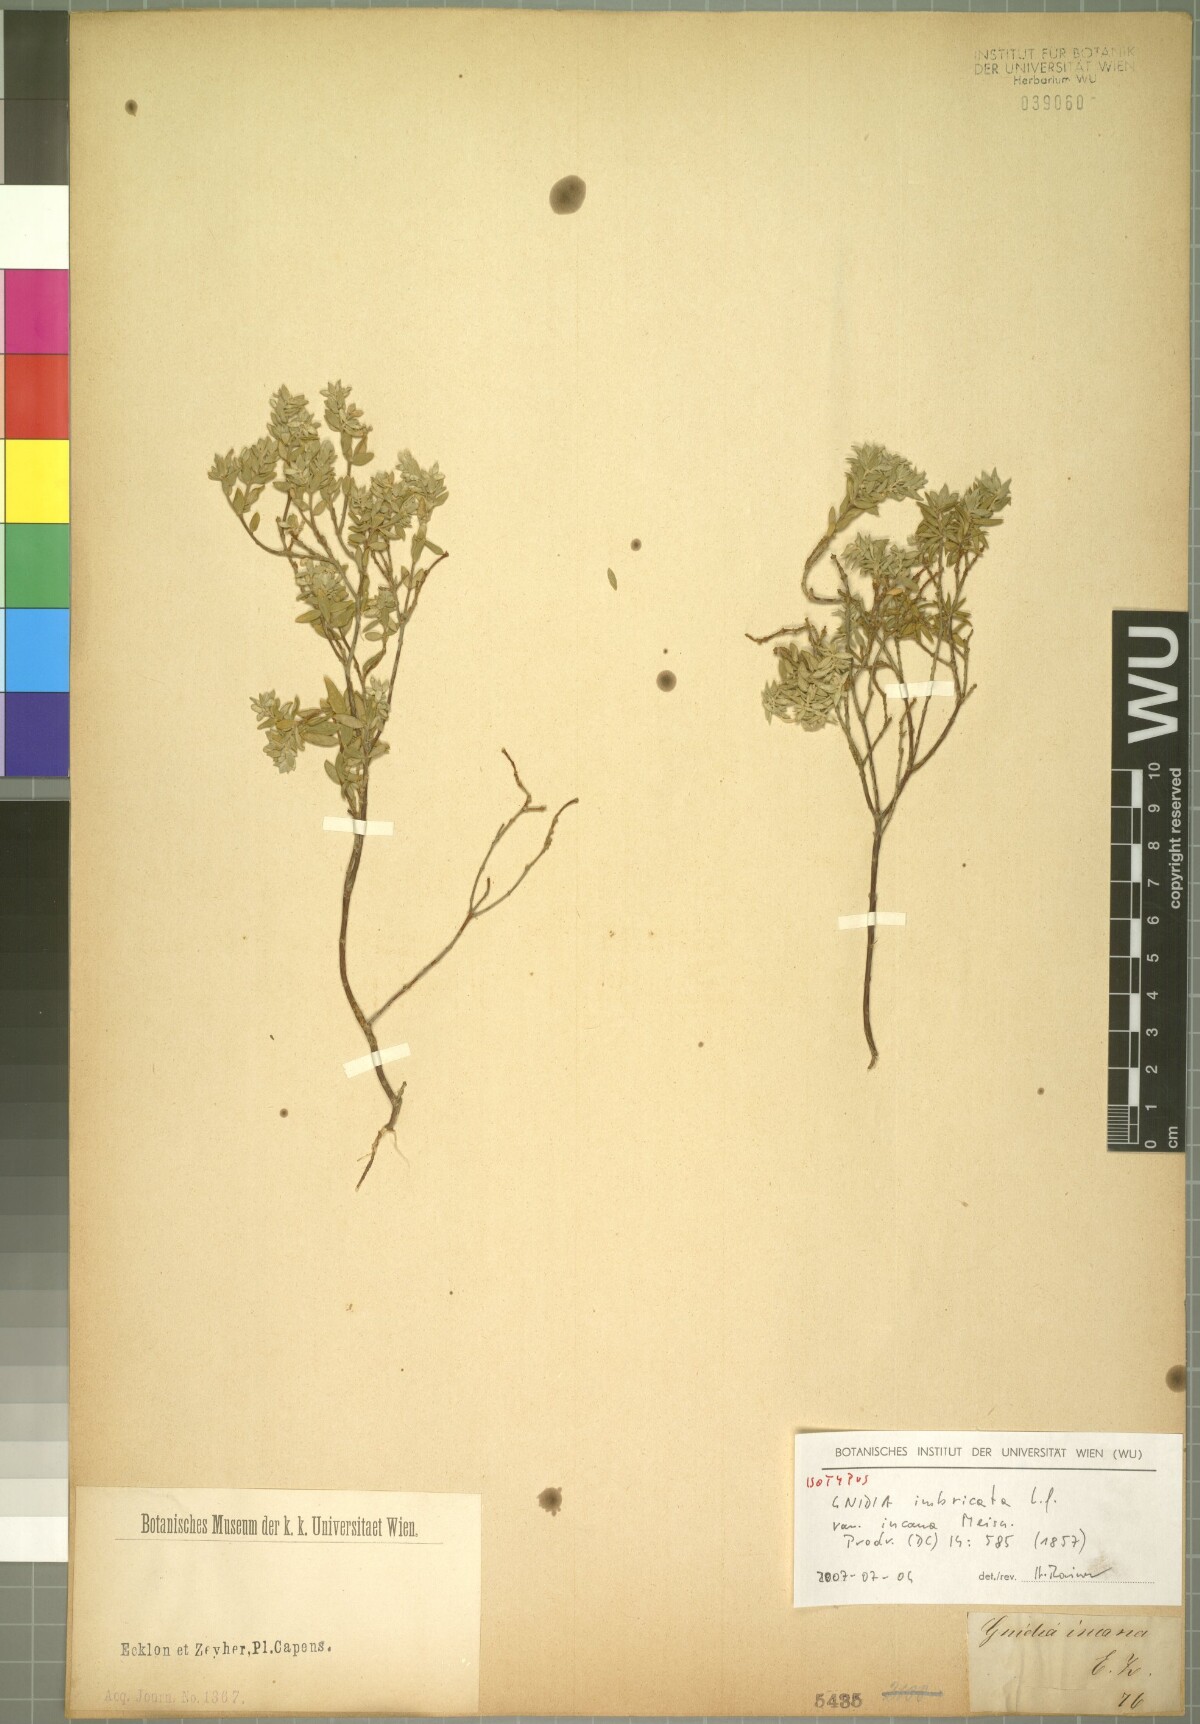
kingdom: Plantae
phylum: Tracheophyta
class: Magnoliopsida
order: Malvales
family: Thymelaeaceae
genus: Gnidia
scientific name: Gnidia imbricata
